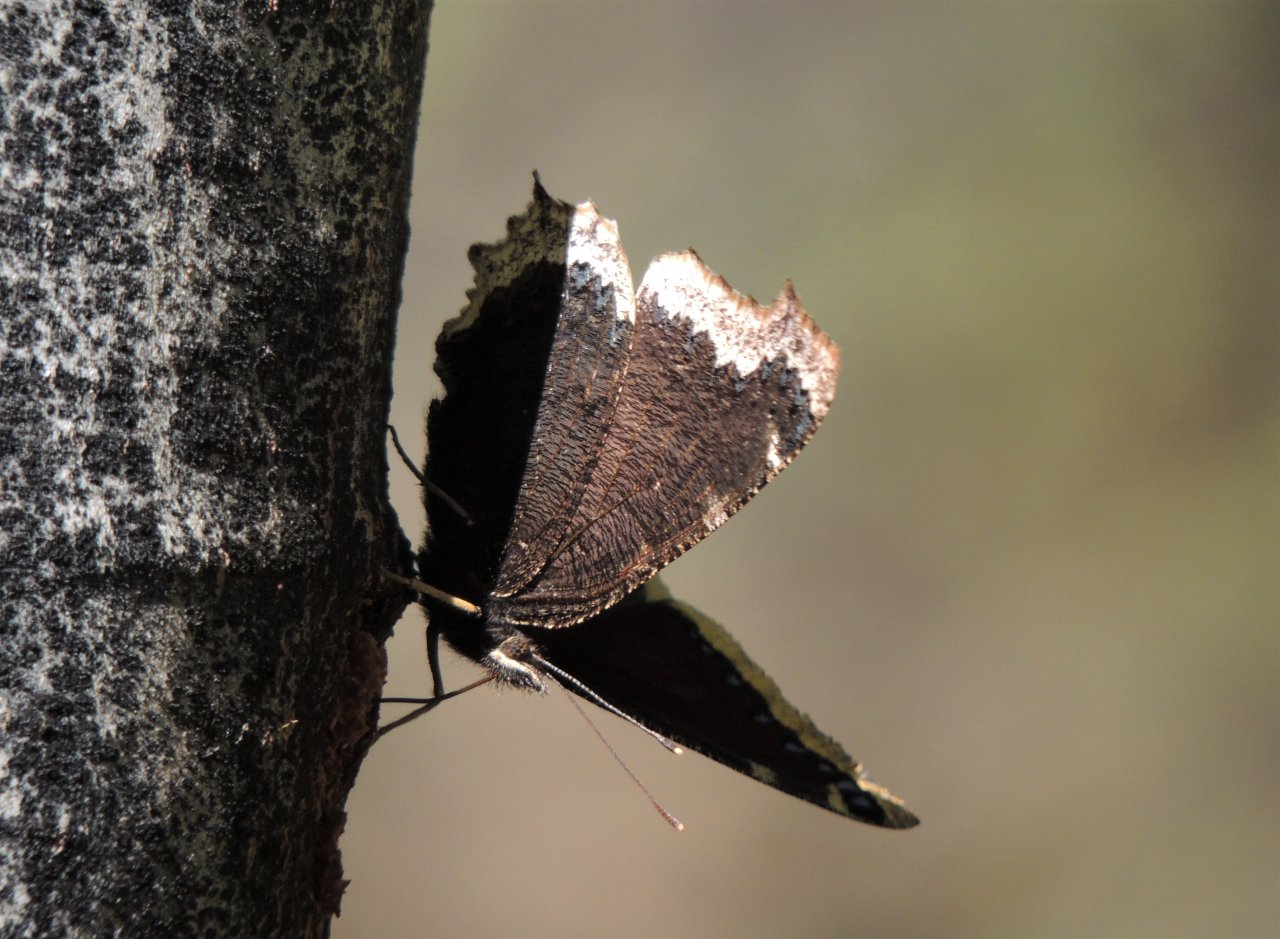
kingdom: Animalia
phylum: Arthropoda
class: Insecta
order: Lepidoptera
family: Nymphalidae
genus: Nymphalis
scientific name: Nymphalis antiopa
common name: Mourning Cloak
